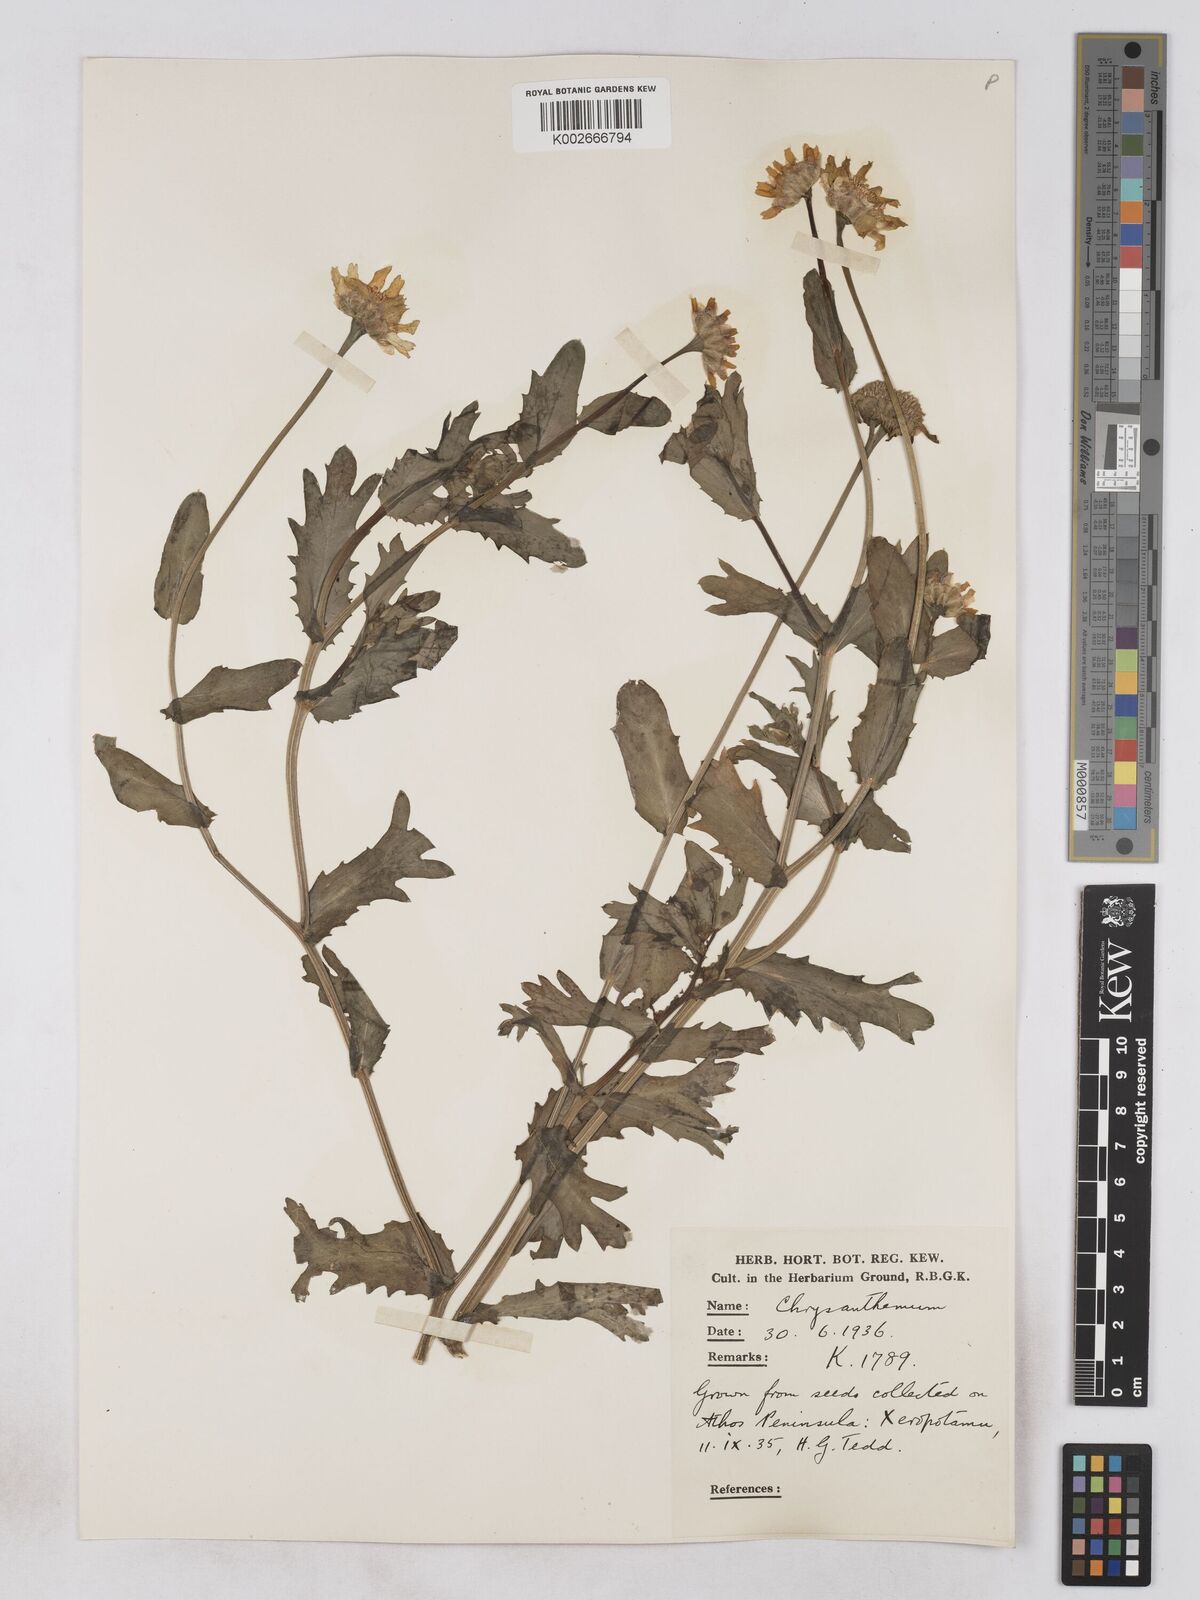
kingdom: Plantae
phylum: Tracheophyta
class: Magnoliopsida
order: Asterales
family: Asteraceae
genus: Glebionis
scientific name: Glebionis segetum
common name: Corndaisy
